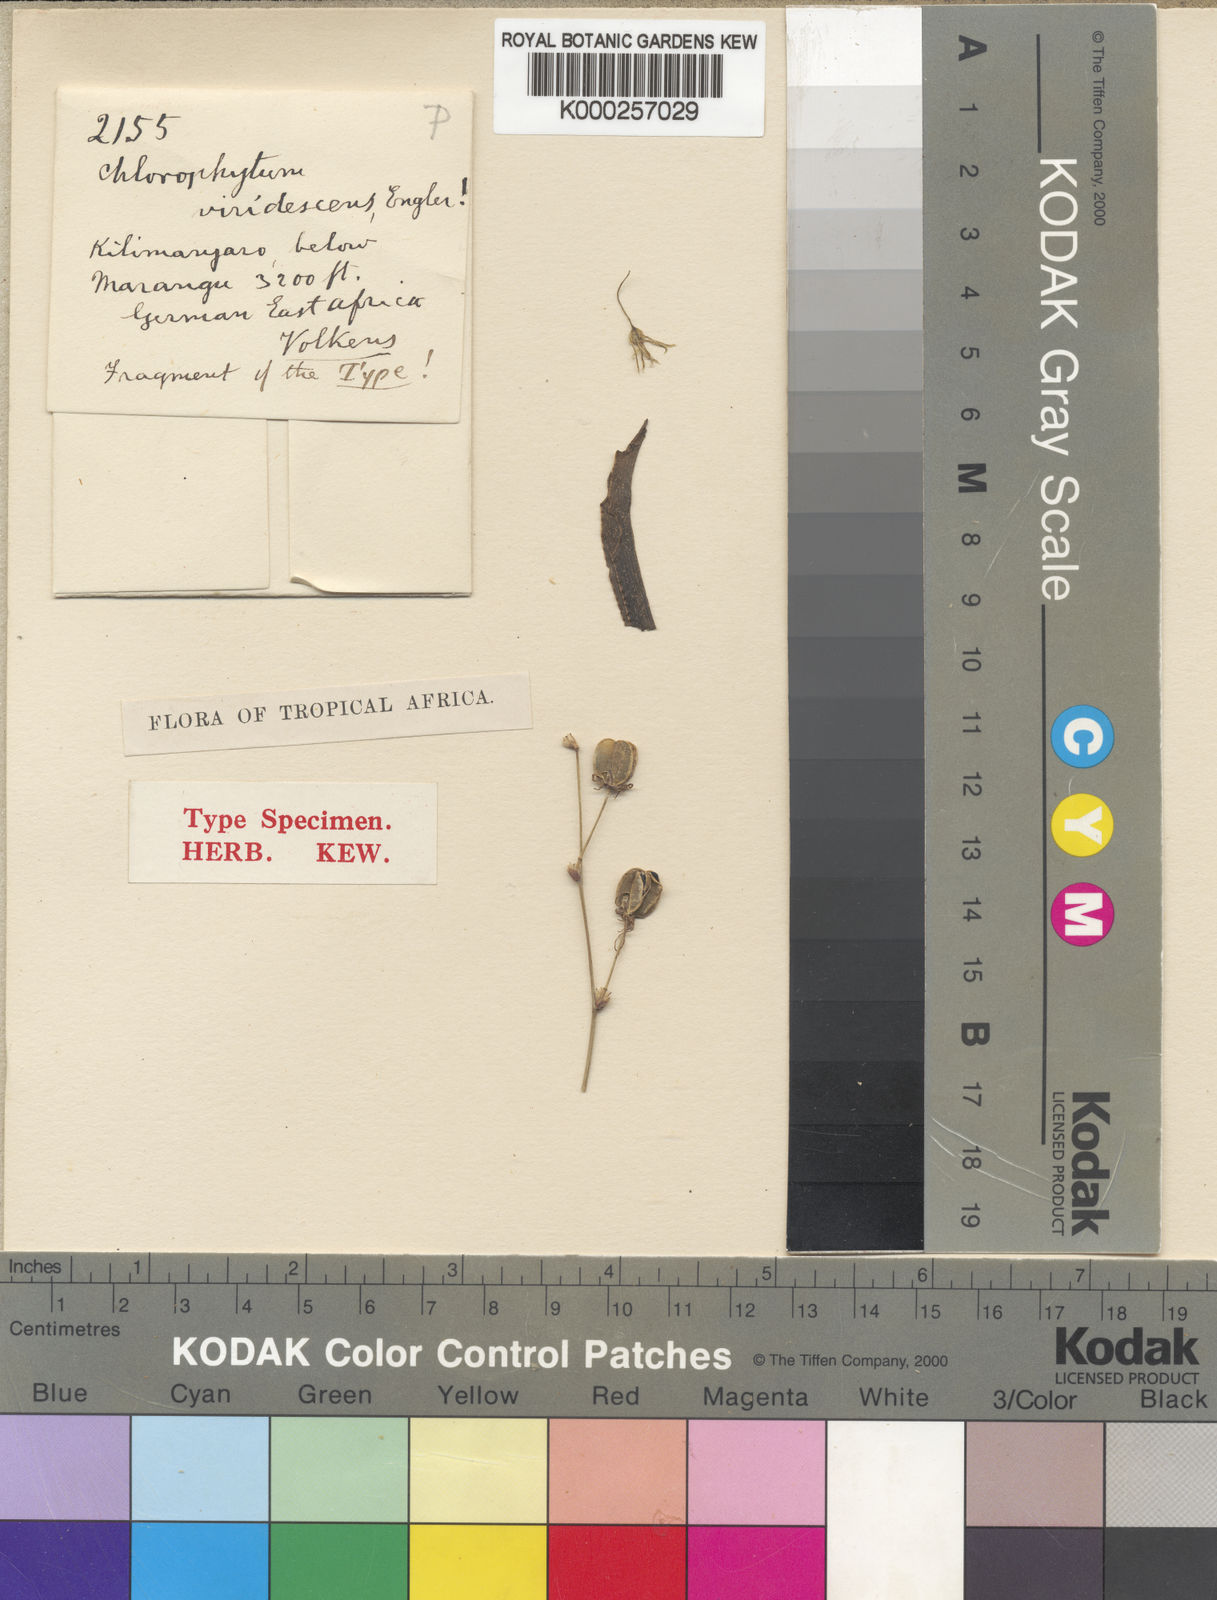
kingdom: Plantae
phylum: Tracheophyta
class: Liliopsida
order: Asparagales
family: Asparagaceae
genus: Chlorophytum
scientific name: Chlorophytum viridescens
